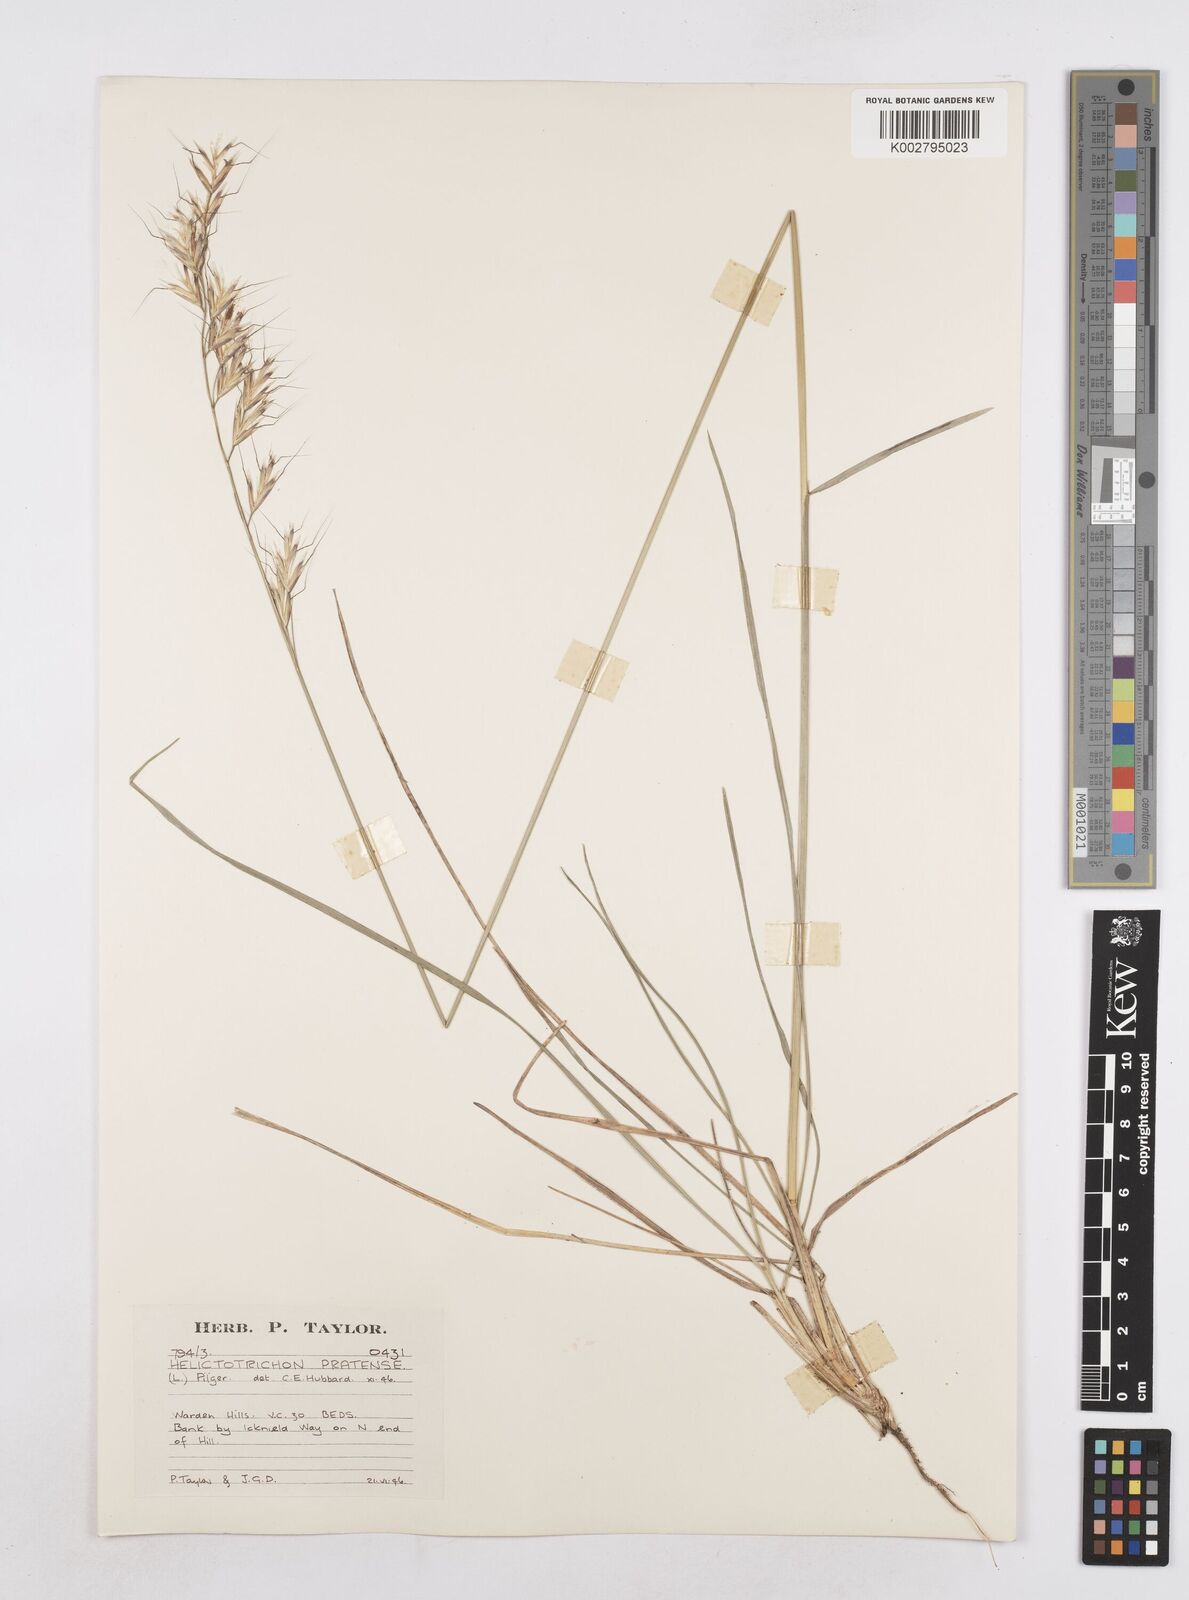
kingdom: Plantae
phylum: Tracheophyta
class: Liliopsida
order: Poales
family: Poaceae
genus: Helictochloa
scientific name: Helictochloa pratensis
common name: Meadow oat grass
